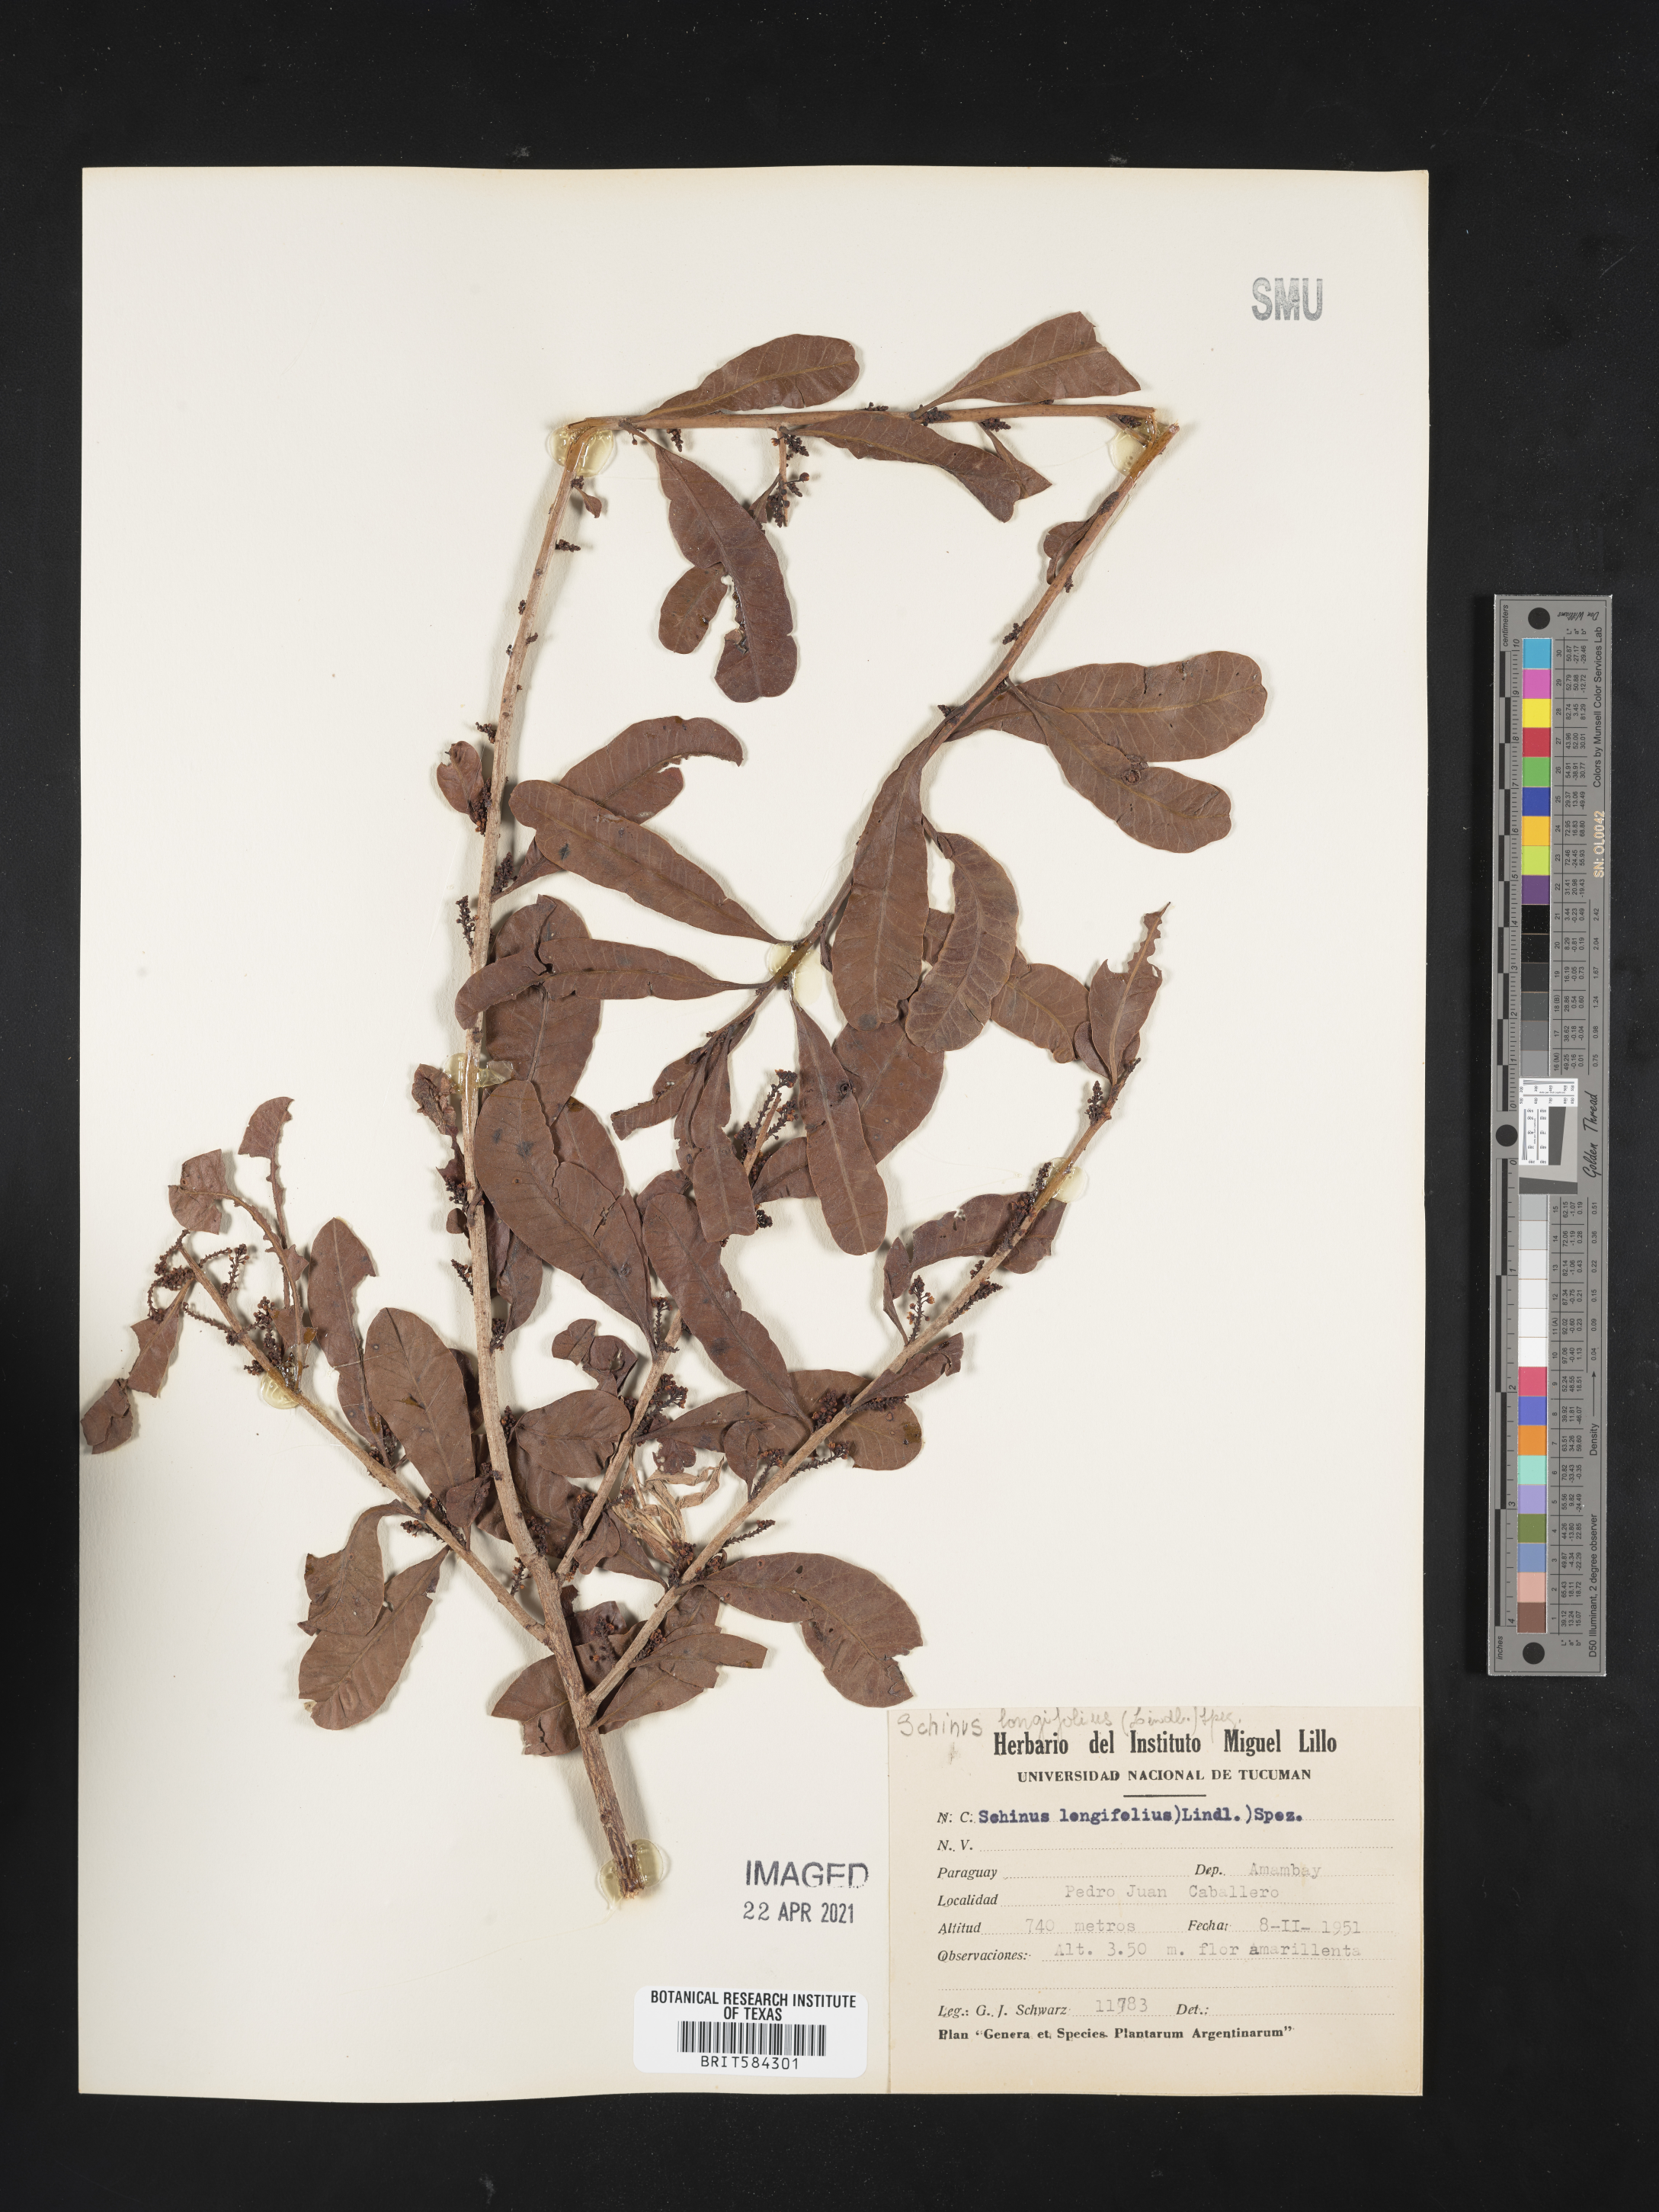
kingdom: Plantae
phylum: Tracheophyta
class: Magnoliopsida
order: Sapindales
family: Anacardiaceae
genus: Schinus
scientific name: Schinus longifolia
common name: Longleaf peppertree
